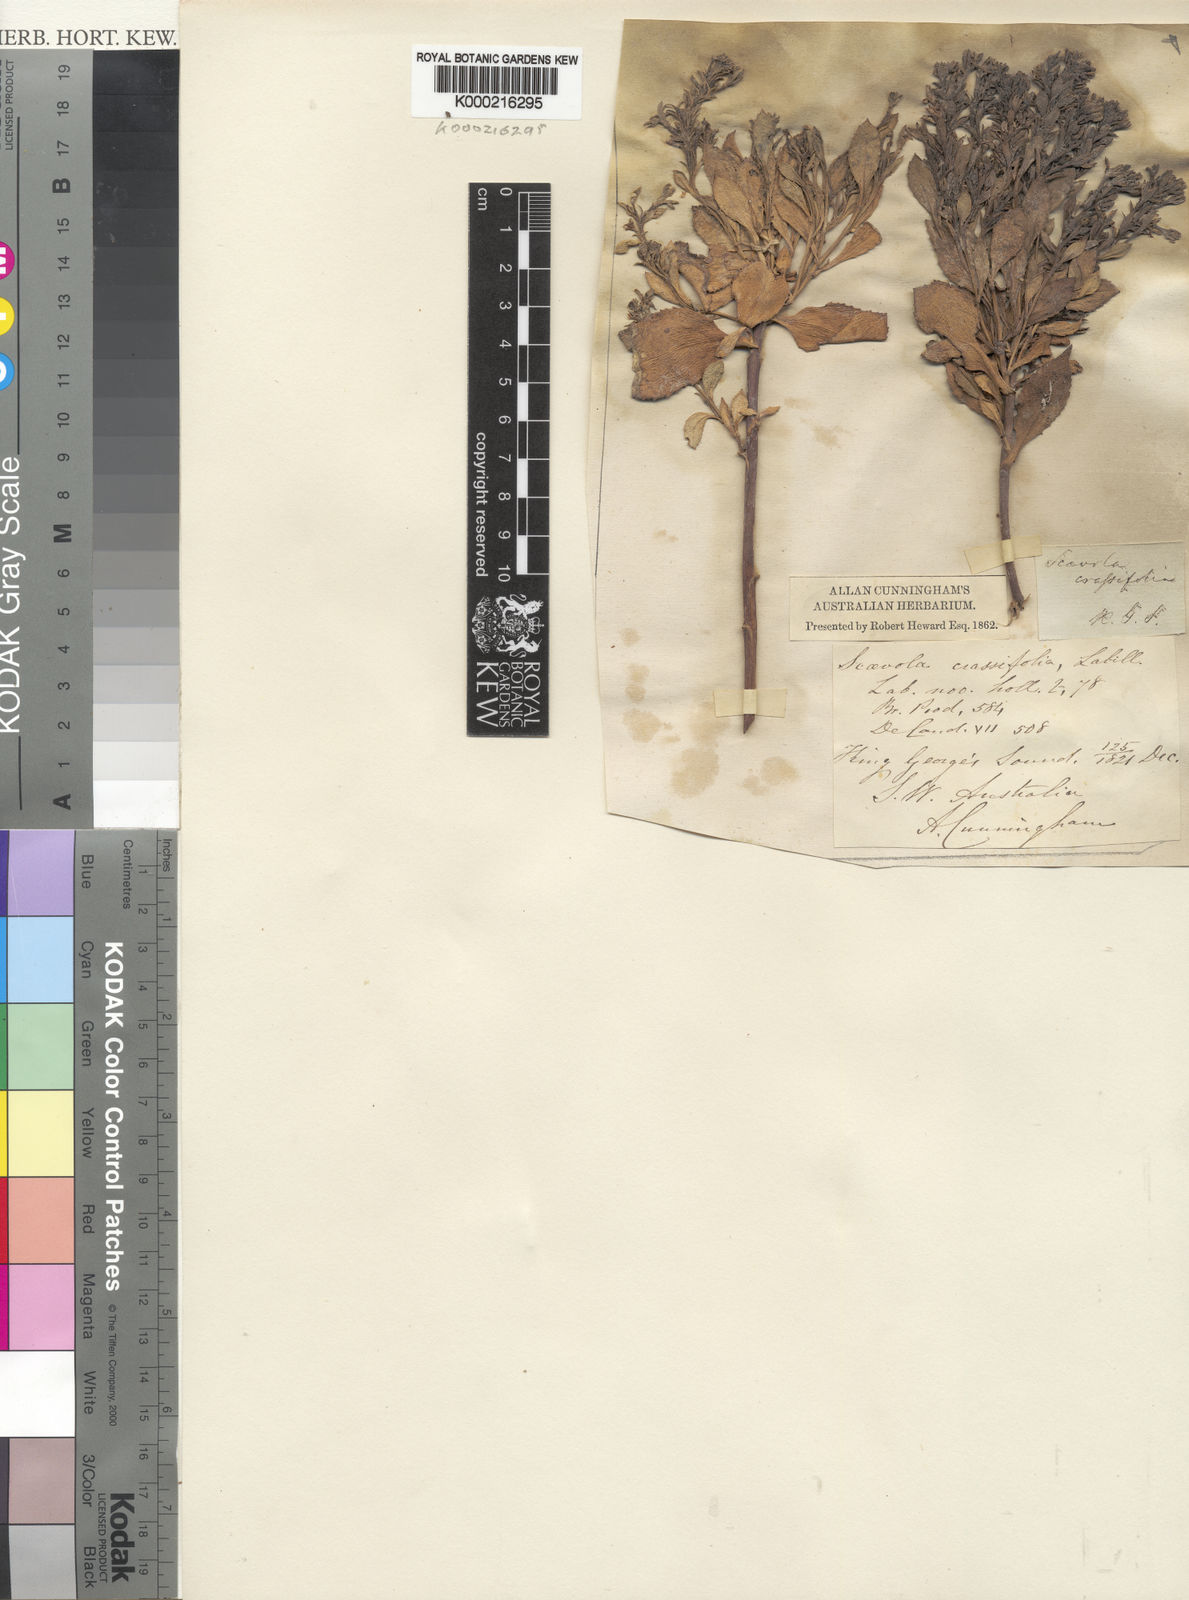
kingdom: Plantae
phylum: Tracheophyta
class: Magnoliopsida
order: Asterales
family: Goodeniaceae
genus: Scaevola
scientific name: Scaevola crassifolia
